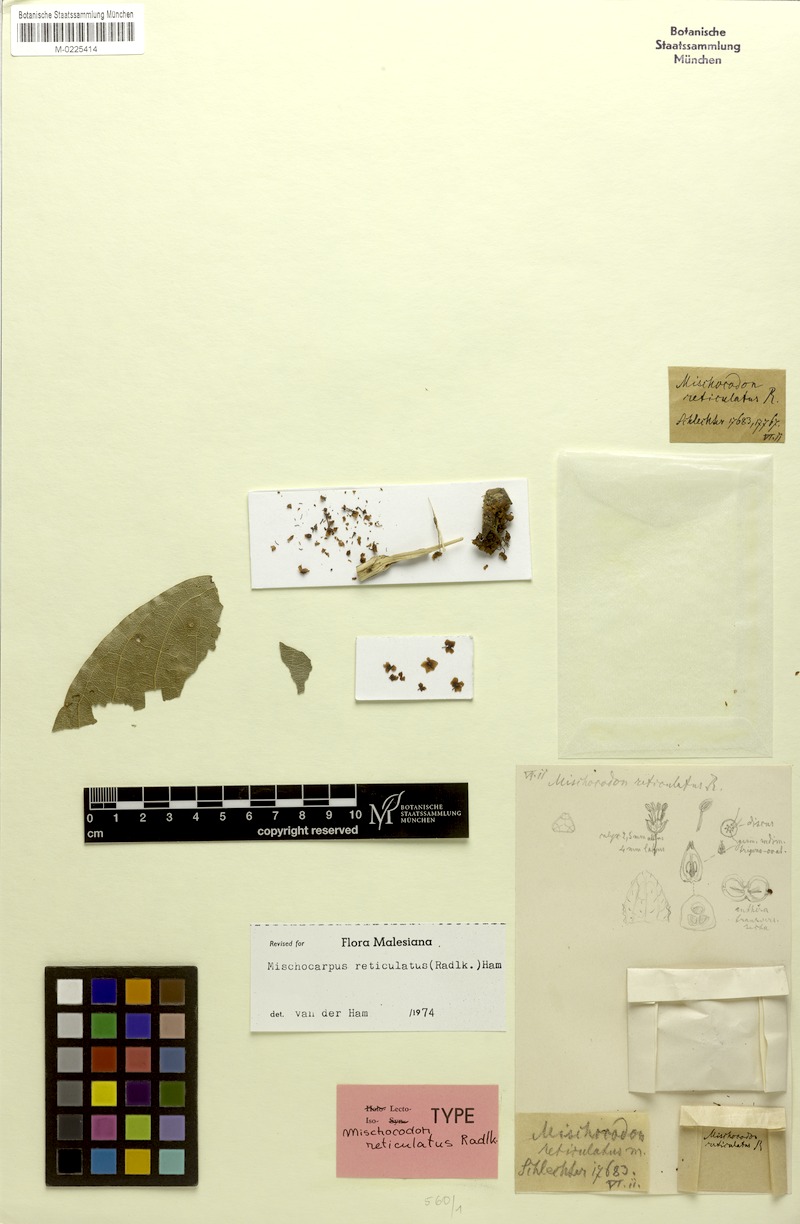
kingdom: Plantae
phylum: Tracheophyta
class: Magnoliopsida
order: Sapindales
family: Sapindaceae
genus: Mischocarpus
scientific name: Mischocarpus reticulatus
